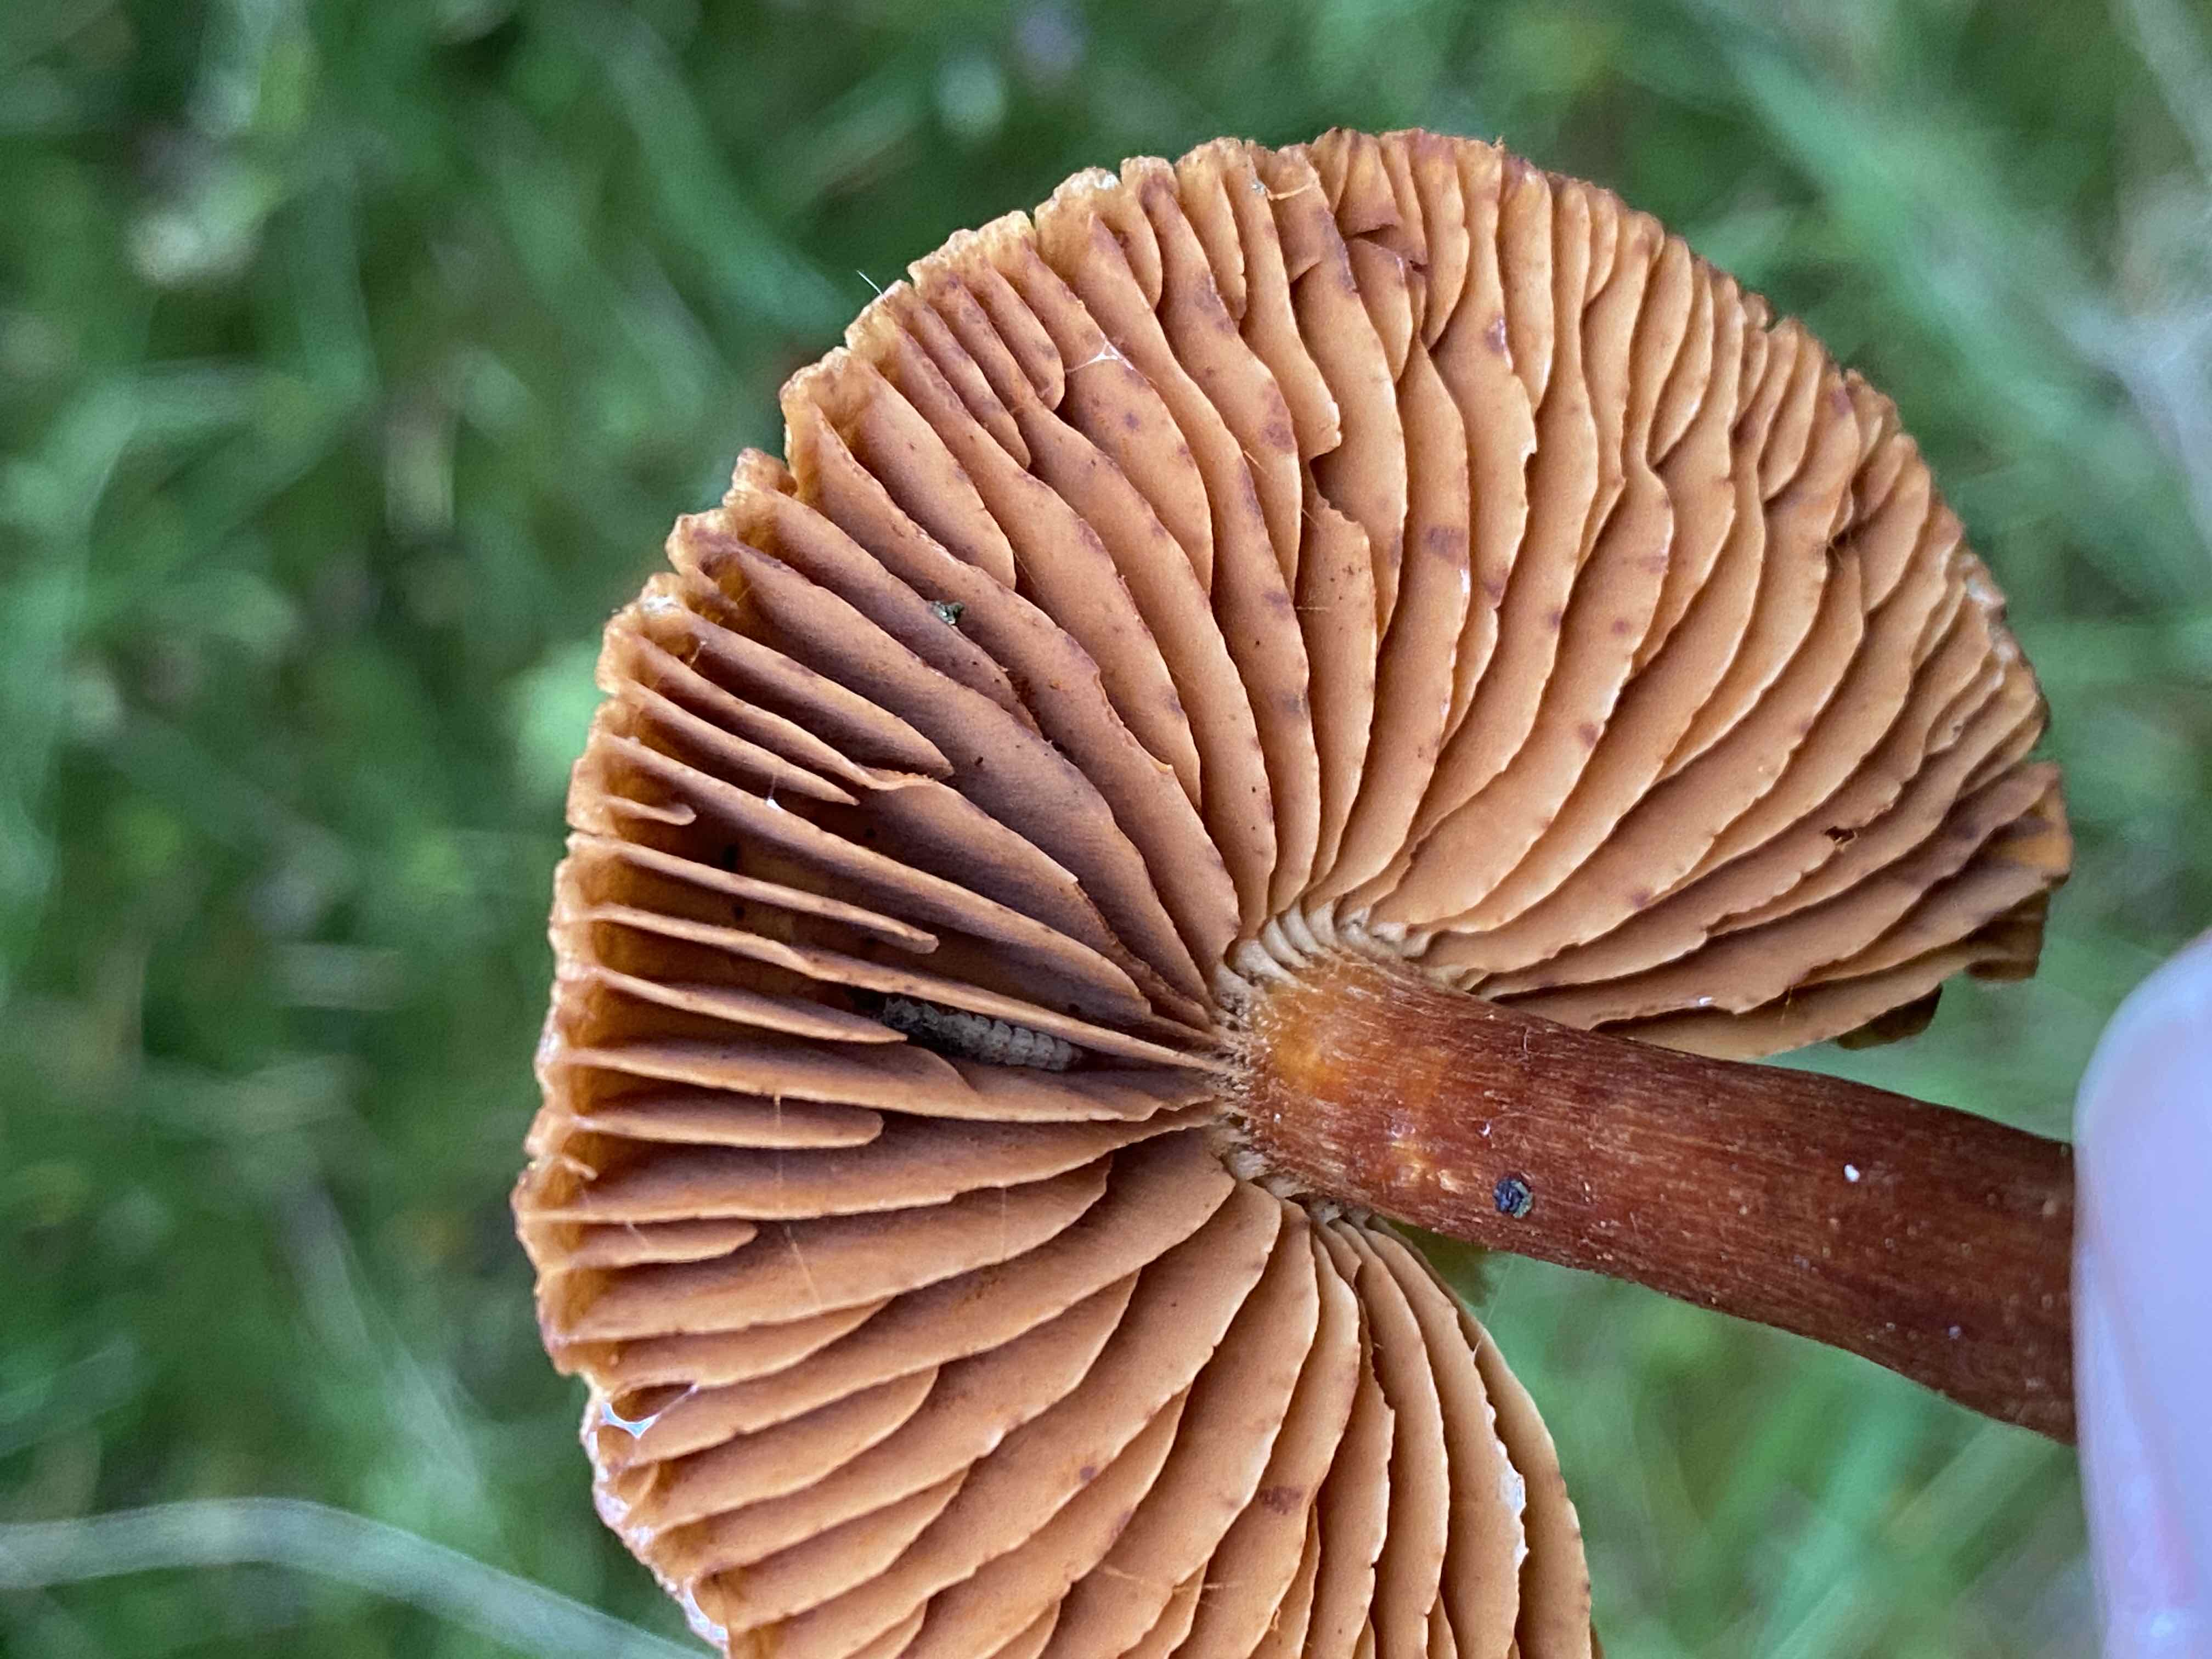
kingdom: Fungi
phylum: Basidiomycota
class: Agaricomycetes
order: Agaricales
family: Cortinariaceae
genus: Cortinarius
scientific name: Cortinarius
